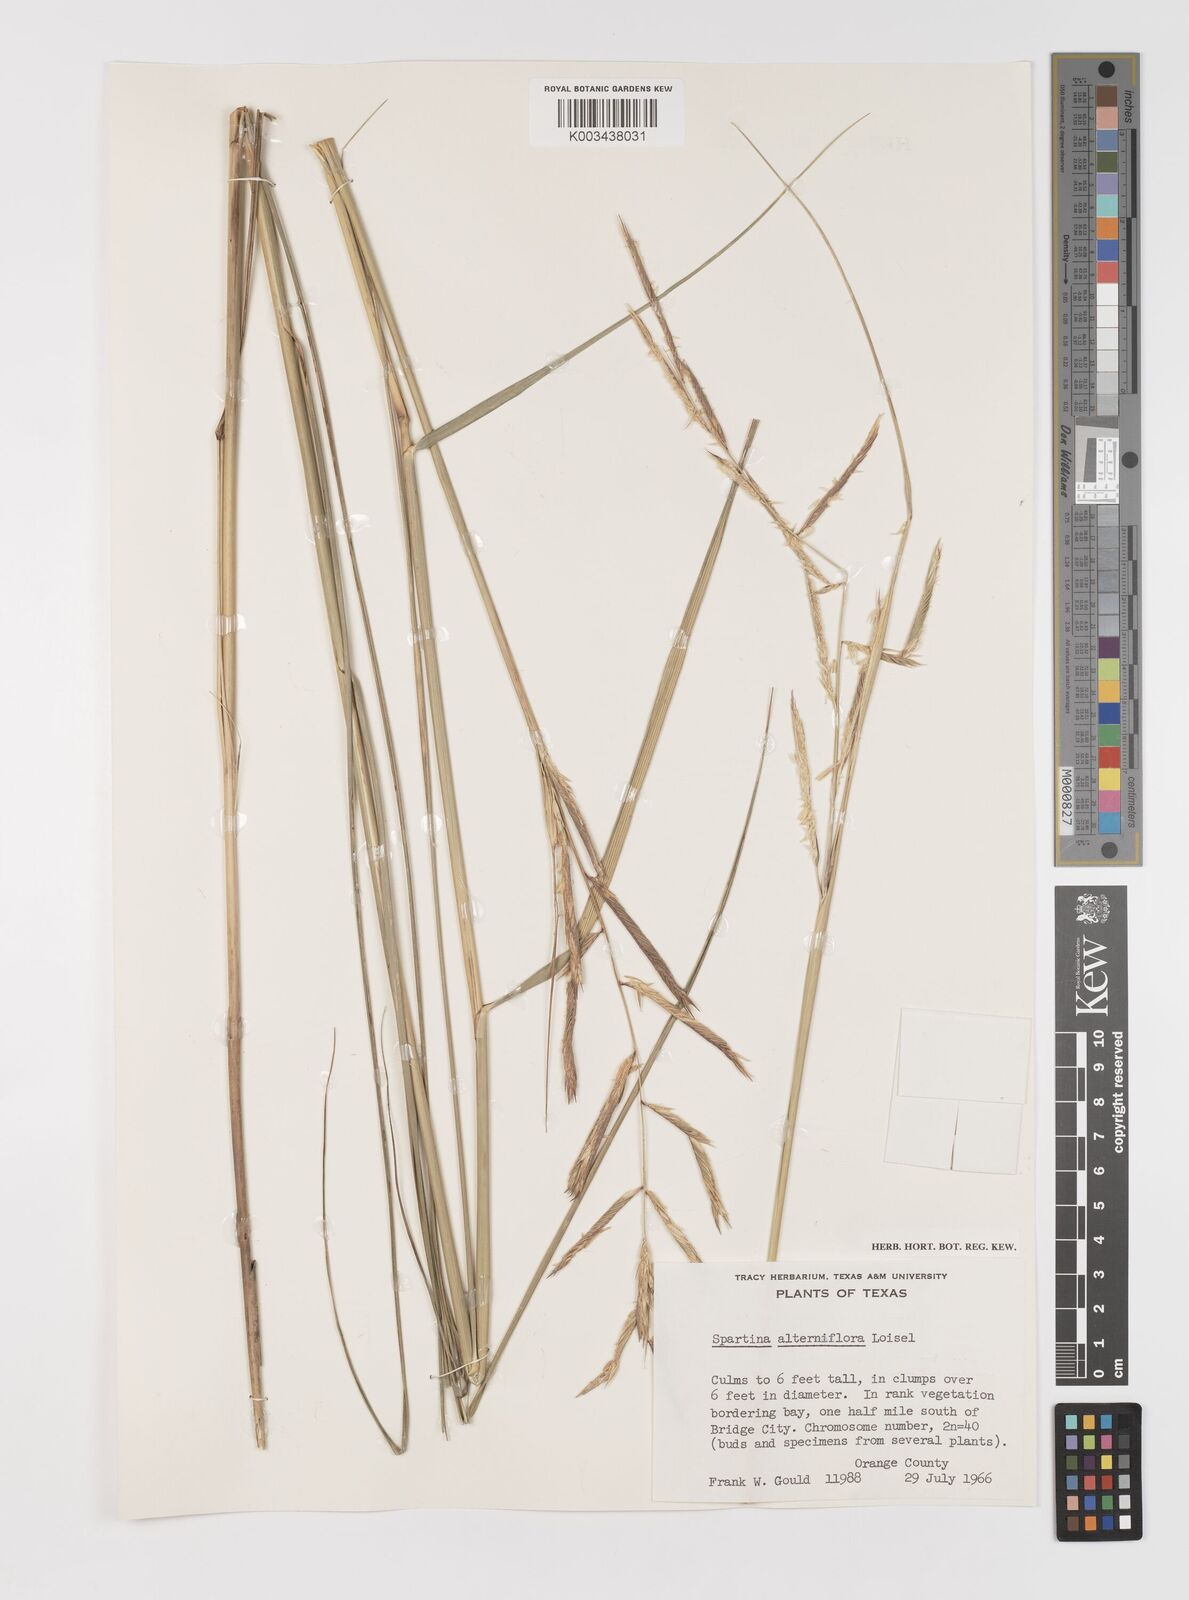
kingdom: Plantae
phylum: Tracheophyta
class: Liliopsida
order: Poales
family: Poaceae
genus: Sporobolus
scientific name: Sporobolus alterniflorus
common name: Atlantic cordgrass
